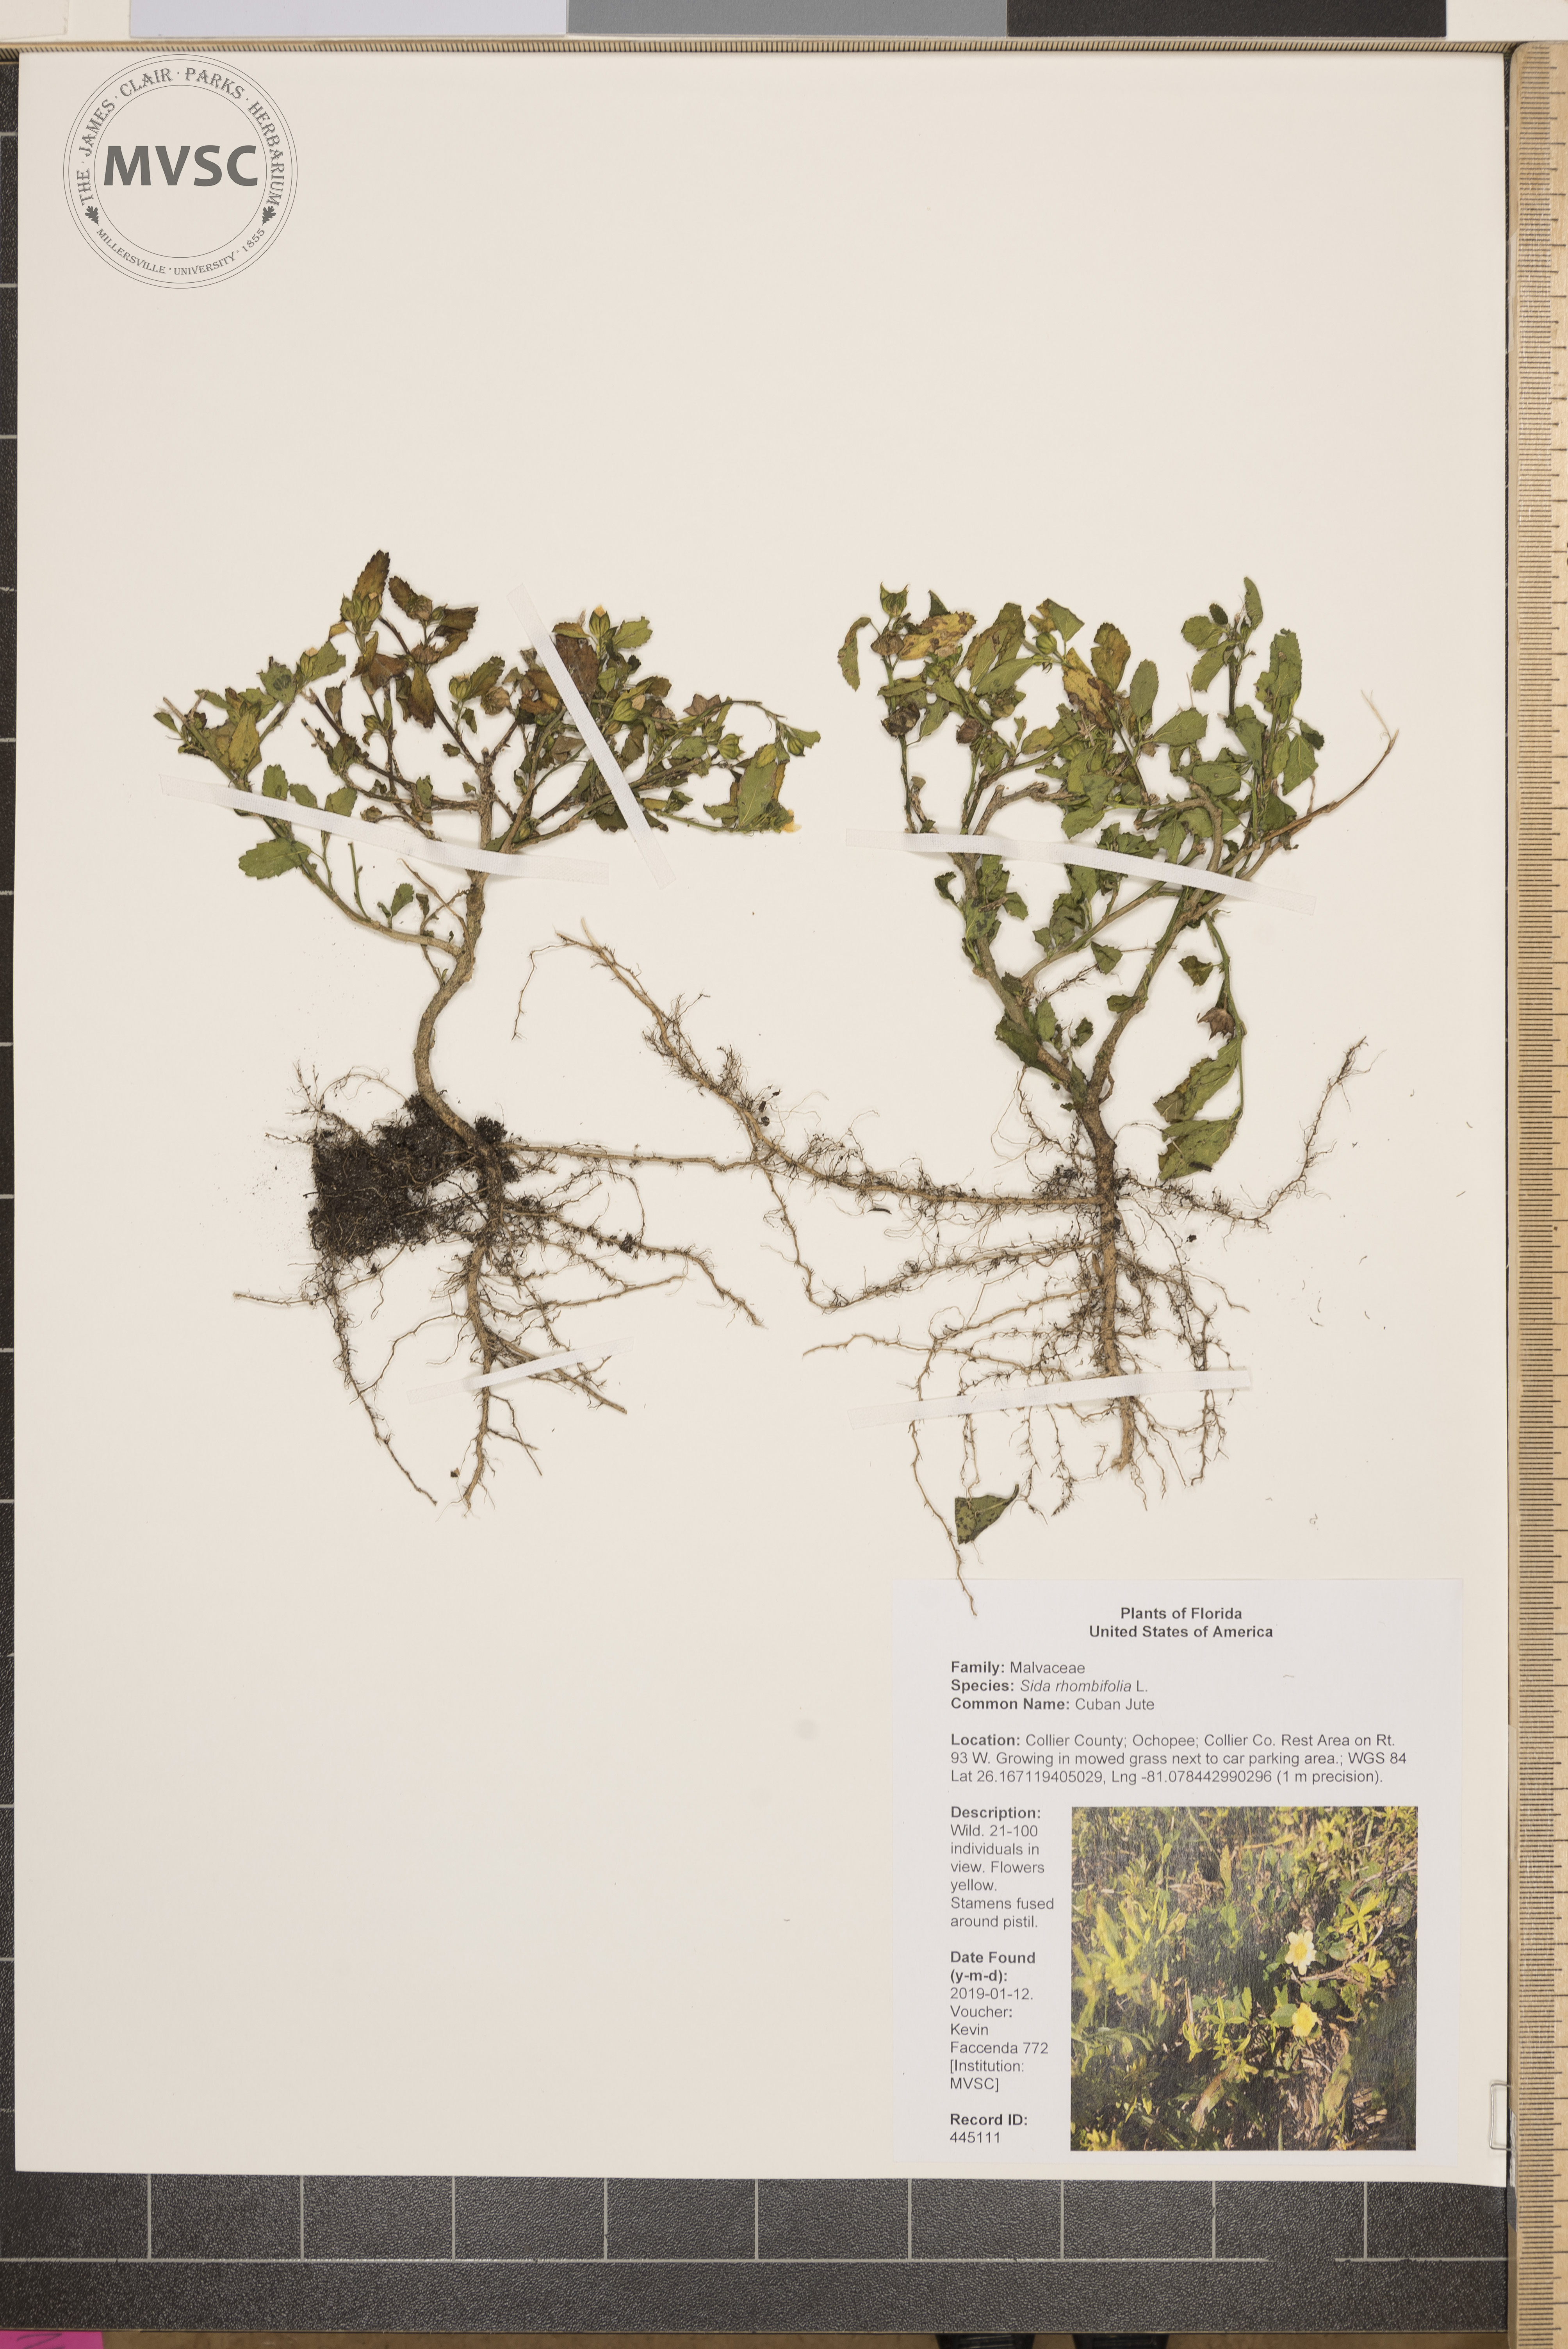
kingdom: Plantae
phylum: Tracheophyta
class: Magnoliopsida
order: Malvales
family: Malvaceae
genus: Sida
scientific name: Sida rhombifolia
